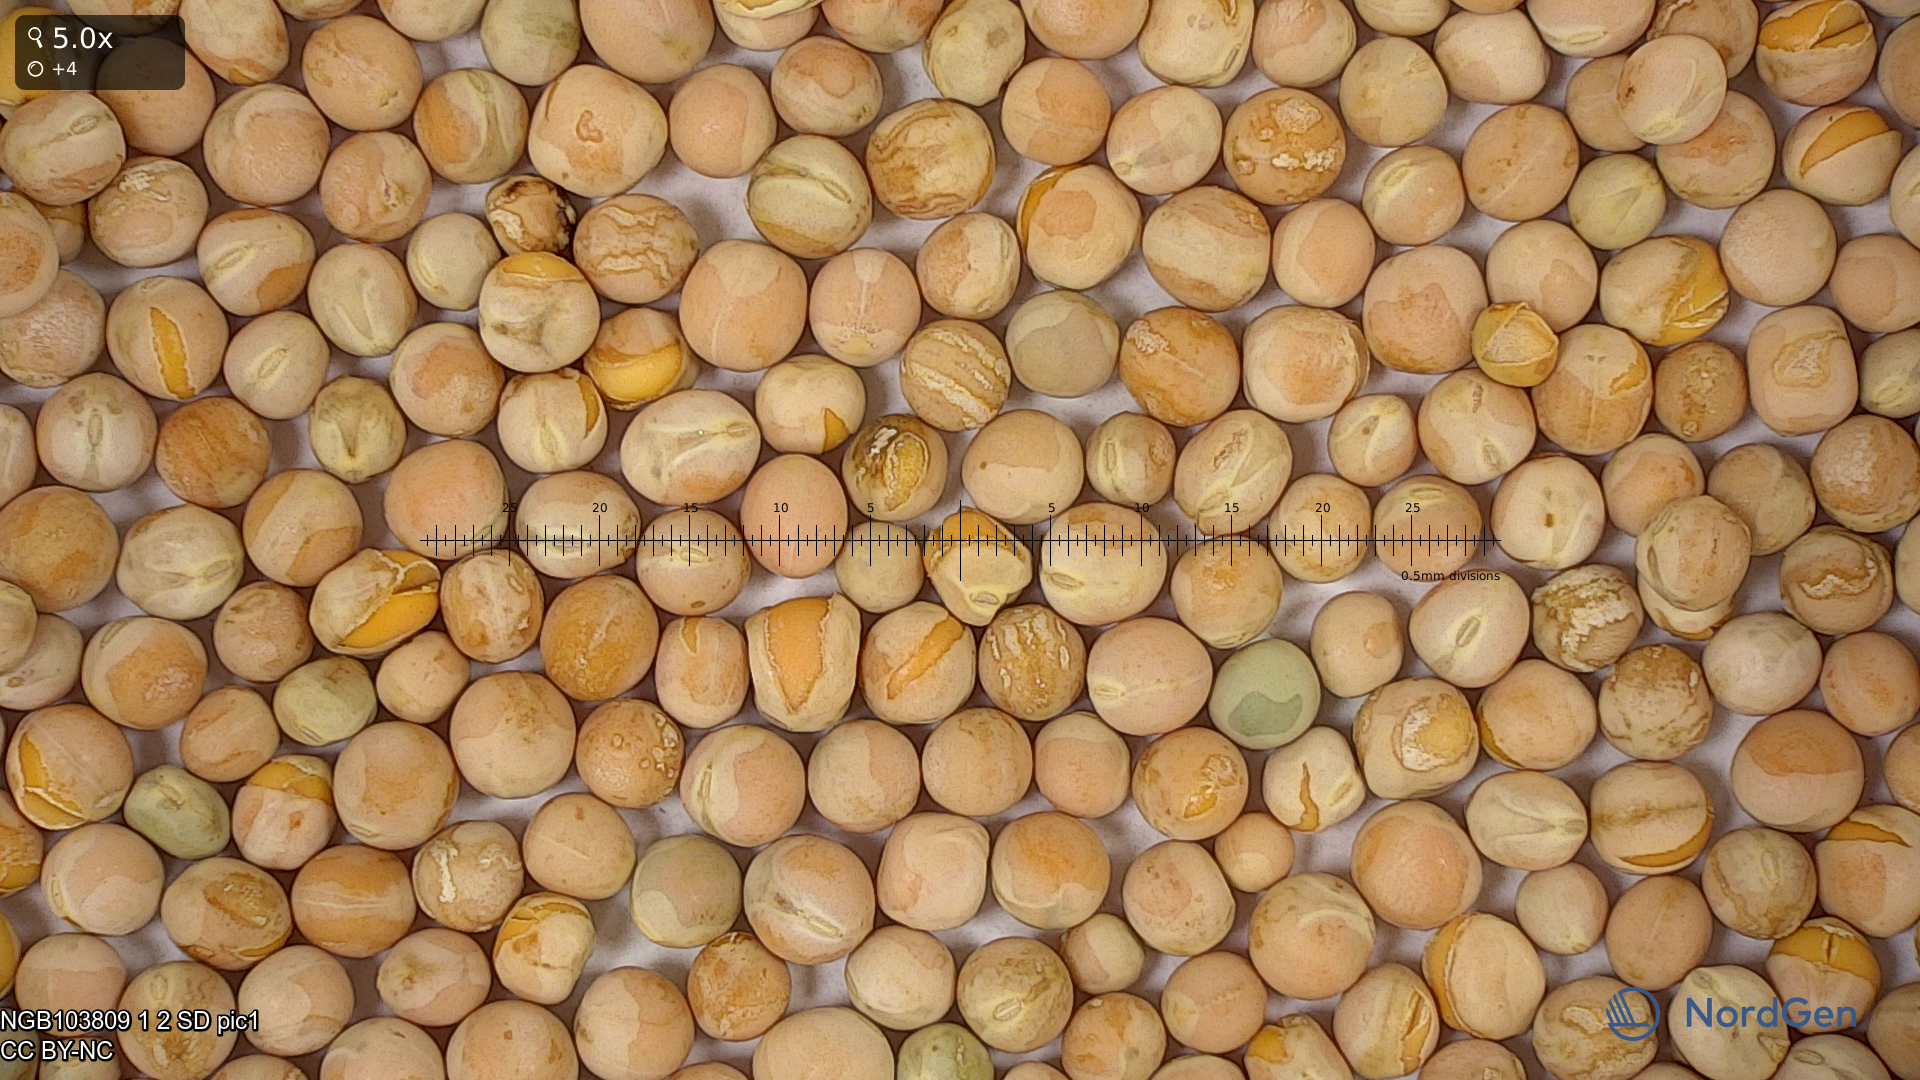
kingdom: Plantae
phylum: Tracheophyta
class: Magnoliopsida
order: Fabales
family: Fabaceae
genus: Lathyrus
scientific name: Lathyrus oleraceus
